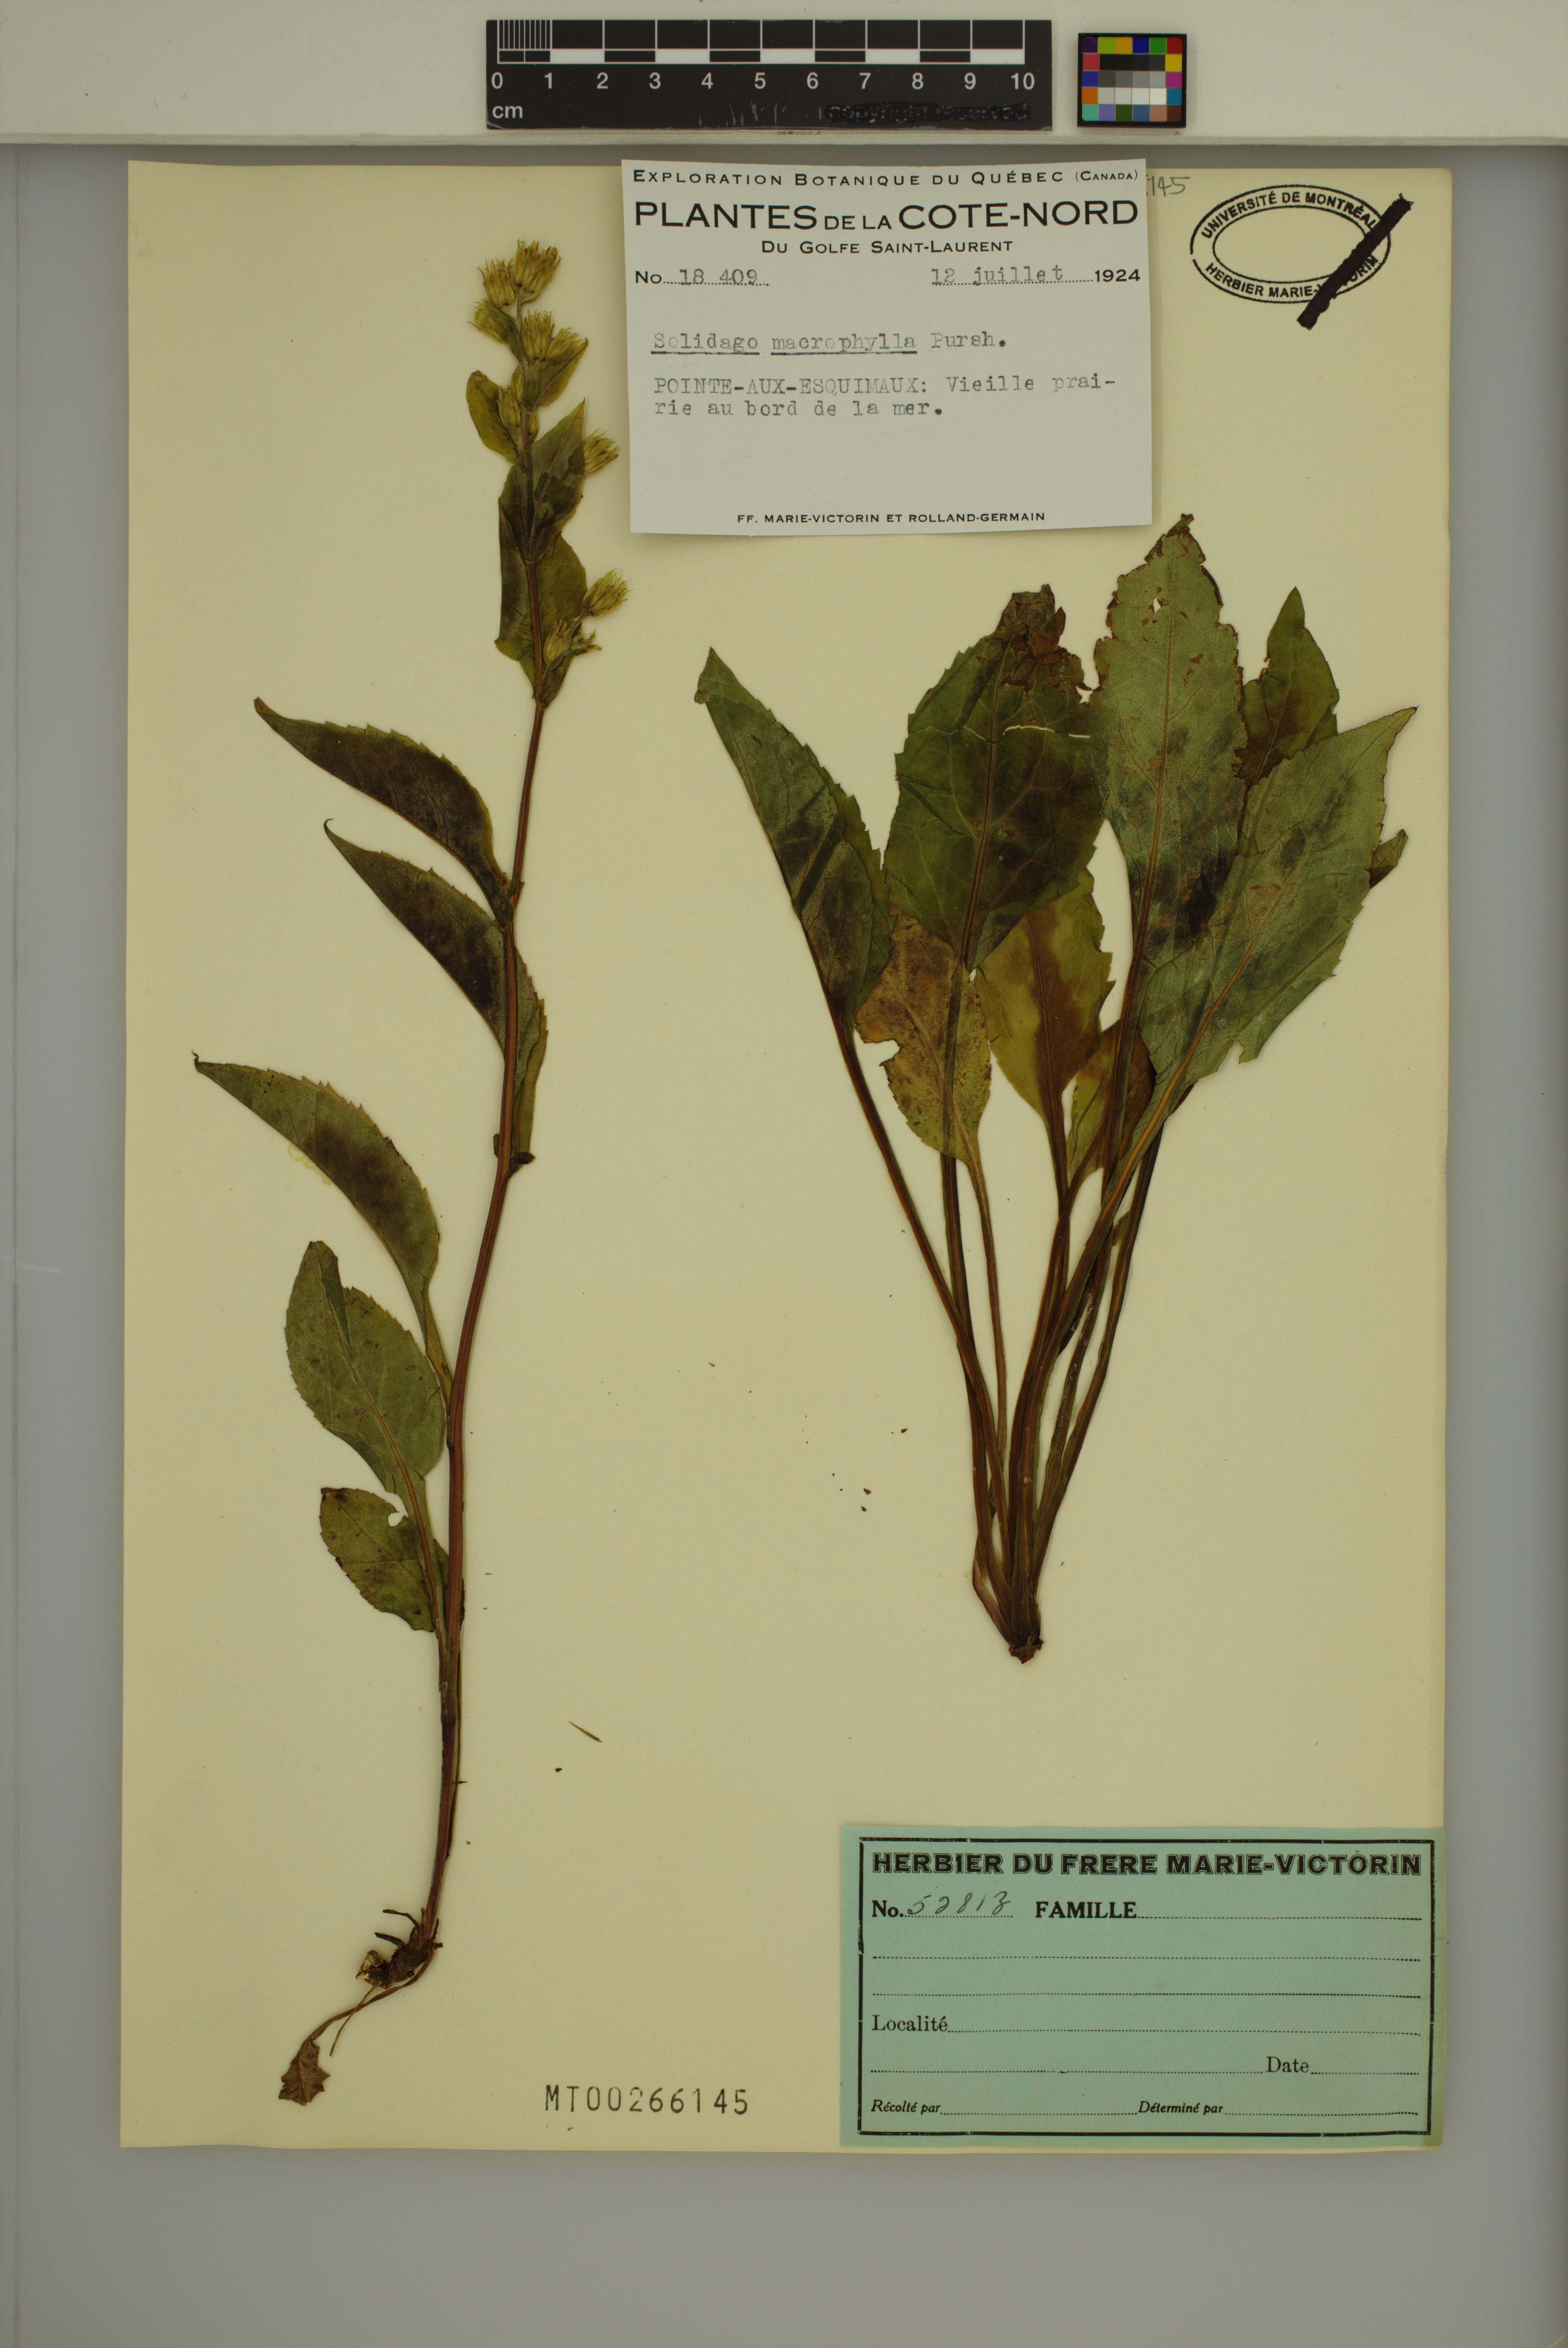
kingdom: Plantae
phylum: Tracheophyta
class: Magnoliopsida
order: Asterales
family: Asteraceae
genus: Solidago
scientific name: Solidago macrophylla
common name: Large-leaved goldenrod
